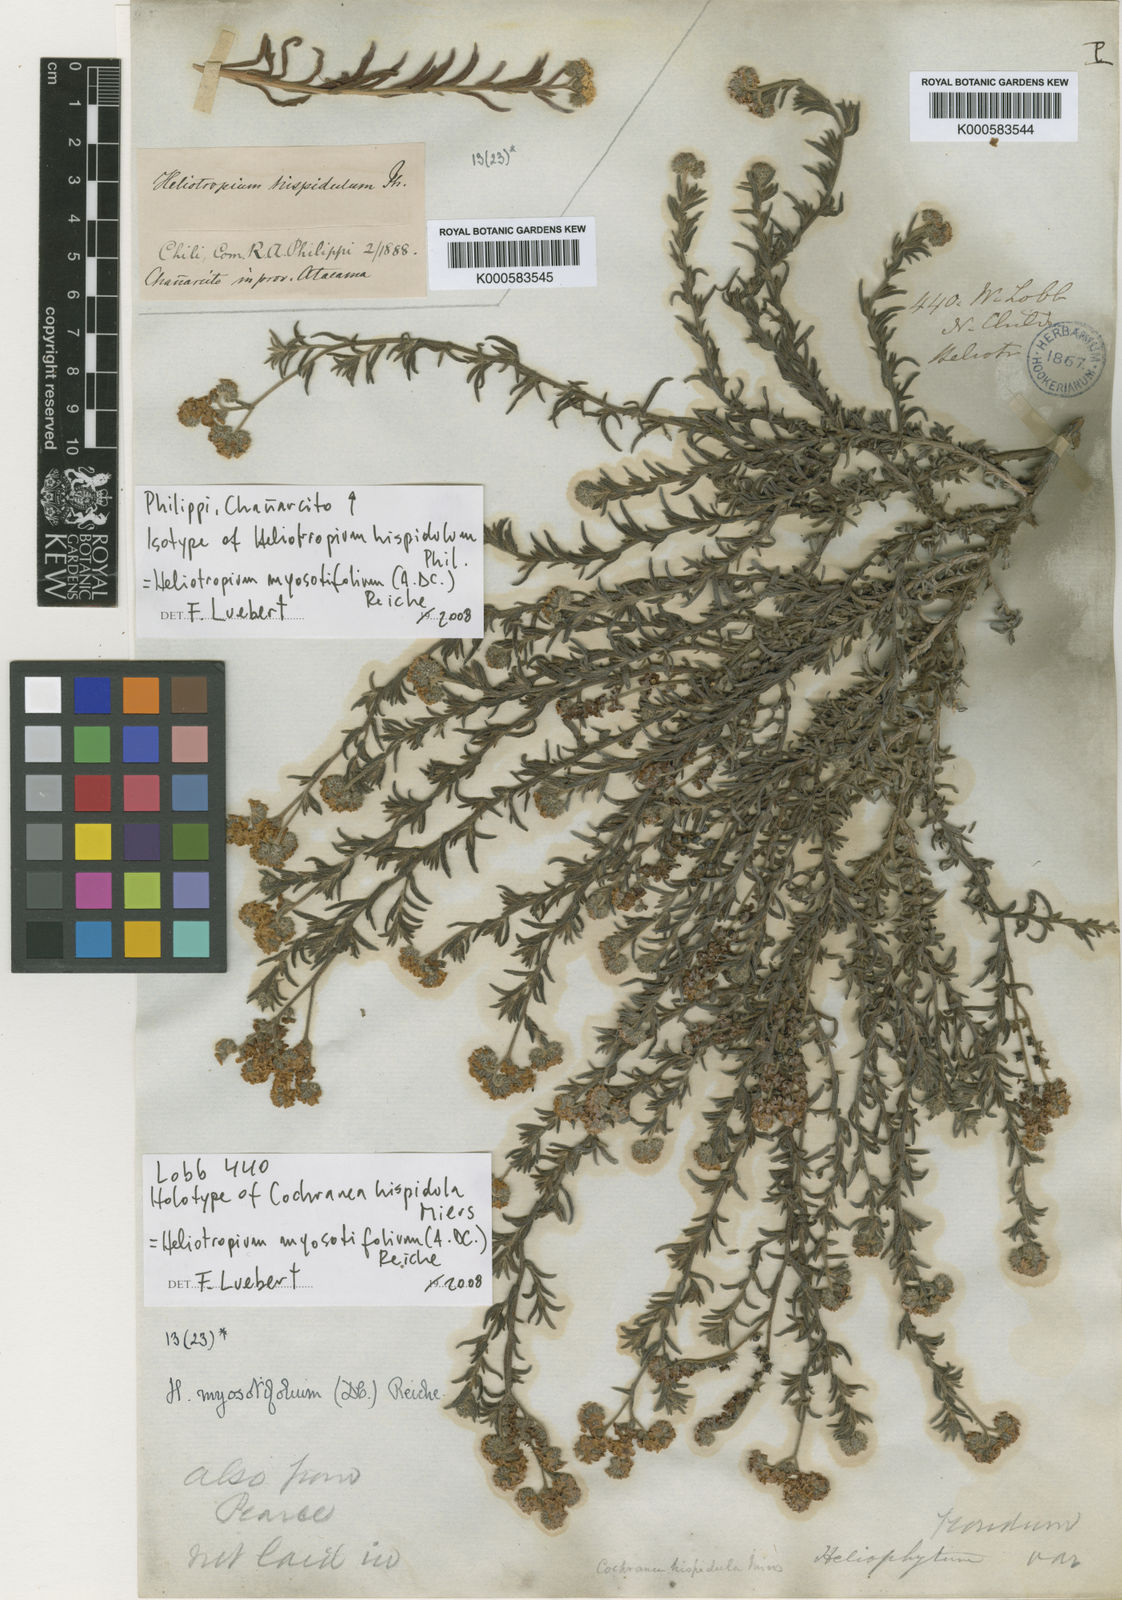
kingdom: Plantae
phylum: Tracheophyta
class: Magnoliopsida
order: Boraginales
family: Heliotropiaceae
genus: Heliotropium
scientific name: Heliotropium myosotifolium
